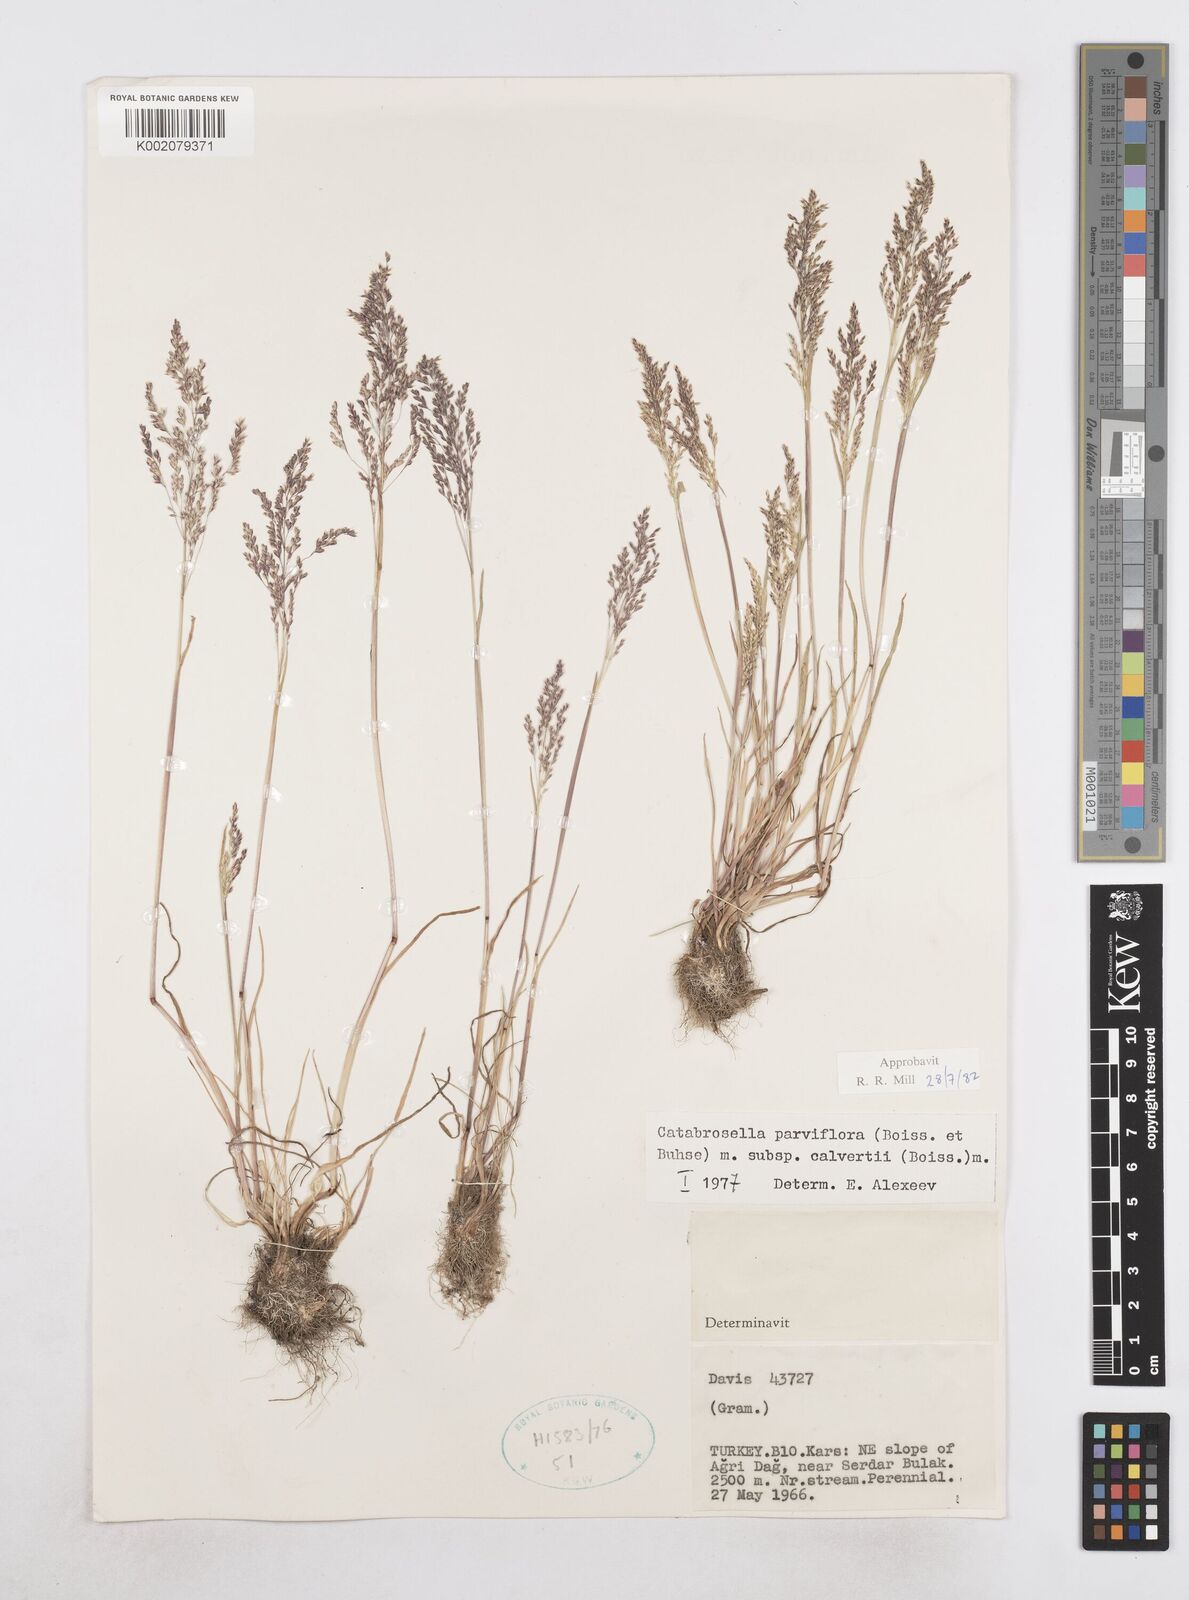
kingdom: Plantae
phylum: Tracheophyta
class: Liliopsida
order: Poales
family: Poaceae
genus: Catabrosella
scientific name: Catabrosella humilis
